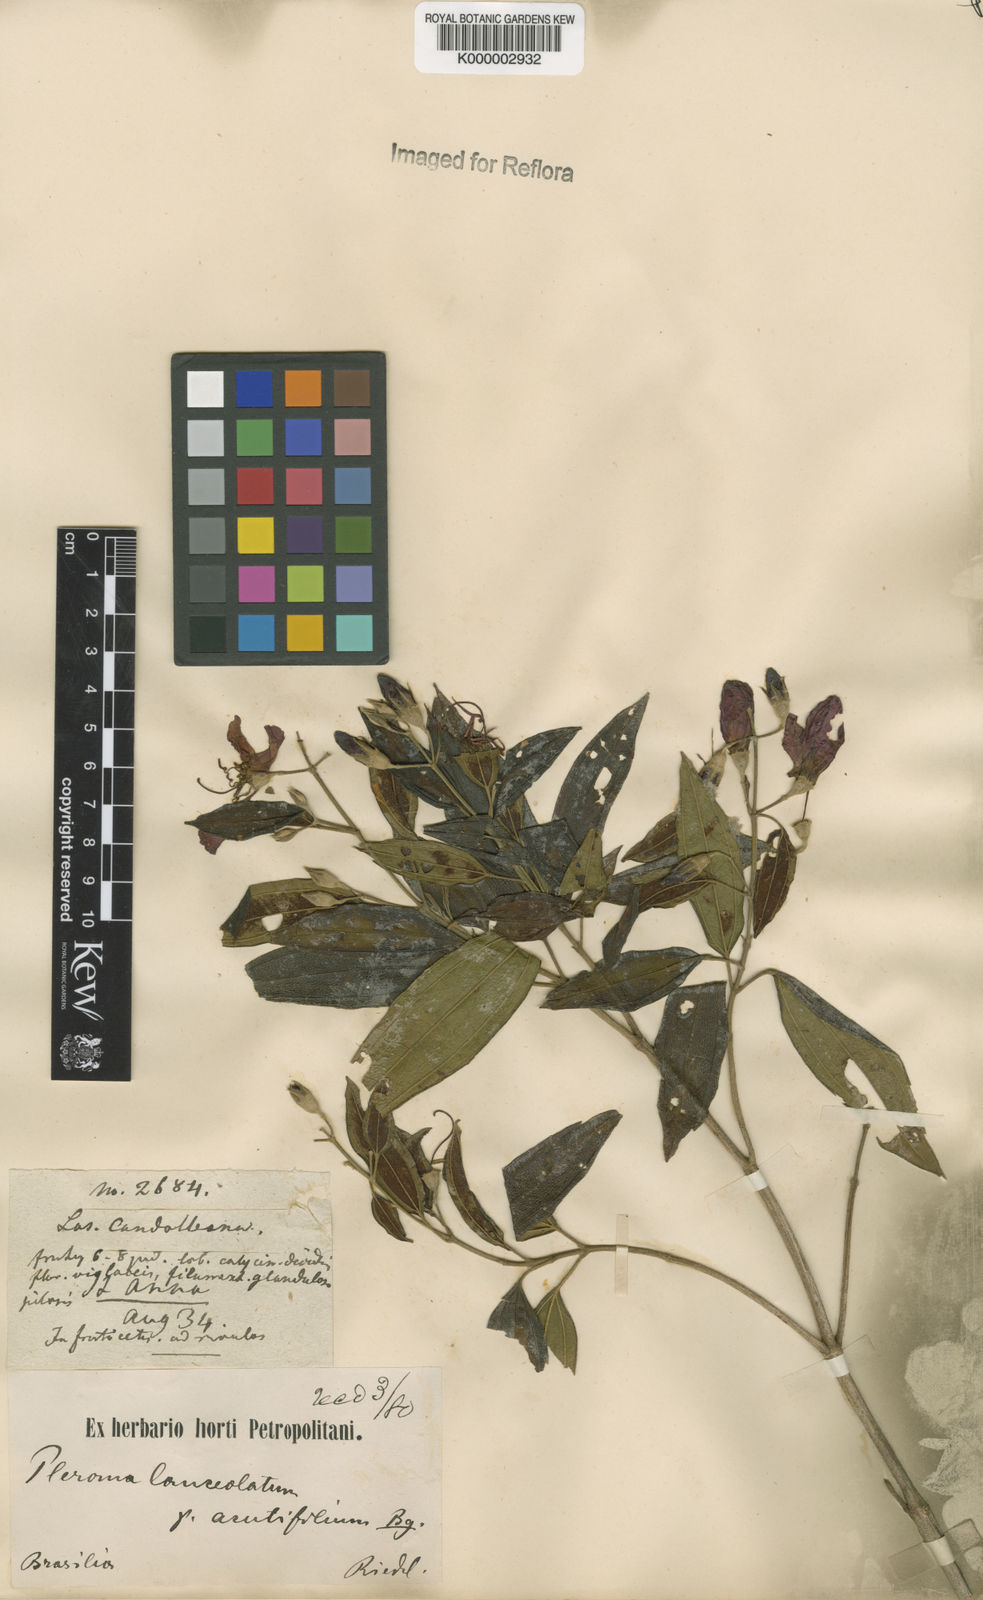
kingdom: Plantae
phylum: Tracheophyta
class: Magnoliopsida
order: Myrtales
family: Melastomataceae
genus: Pleroma
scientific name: Pleroma candolleanum
